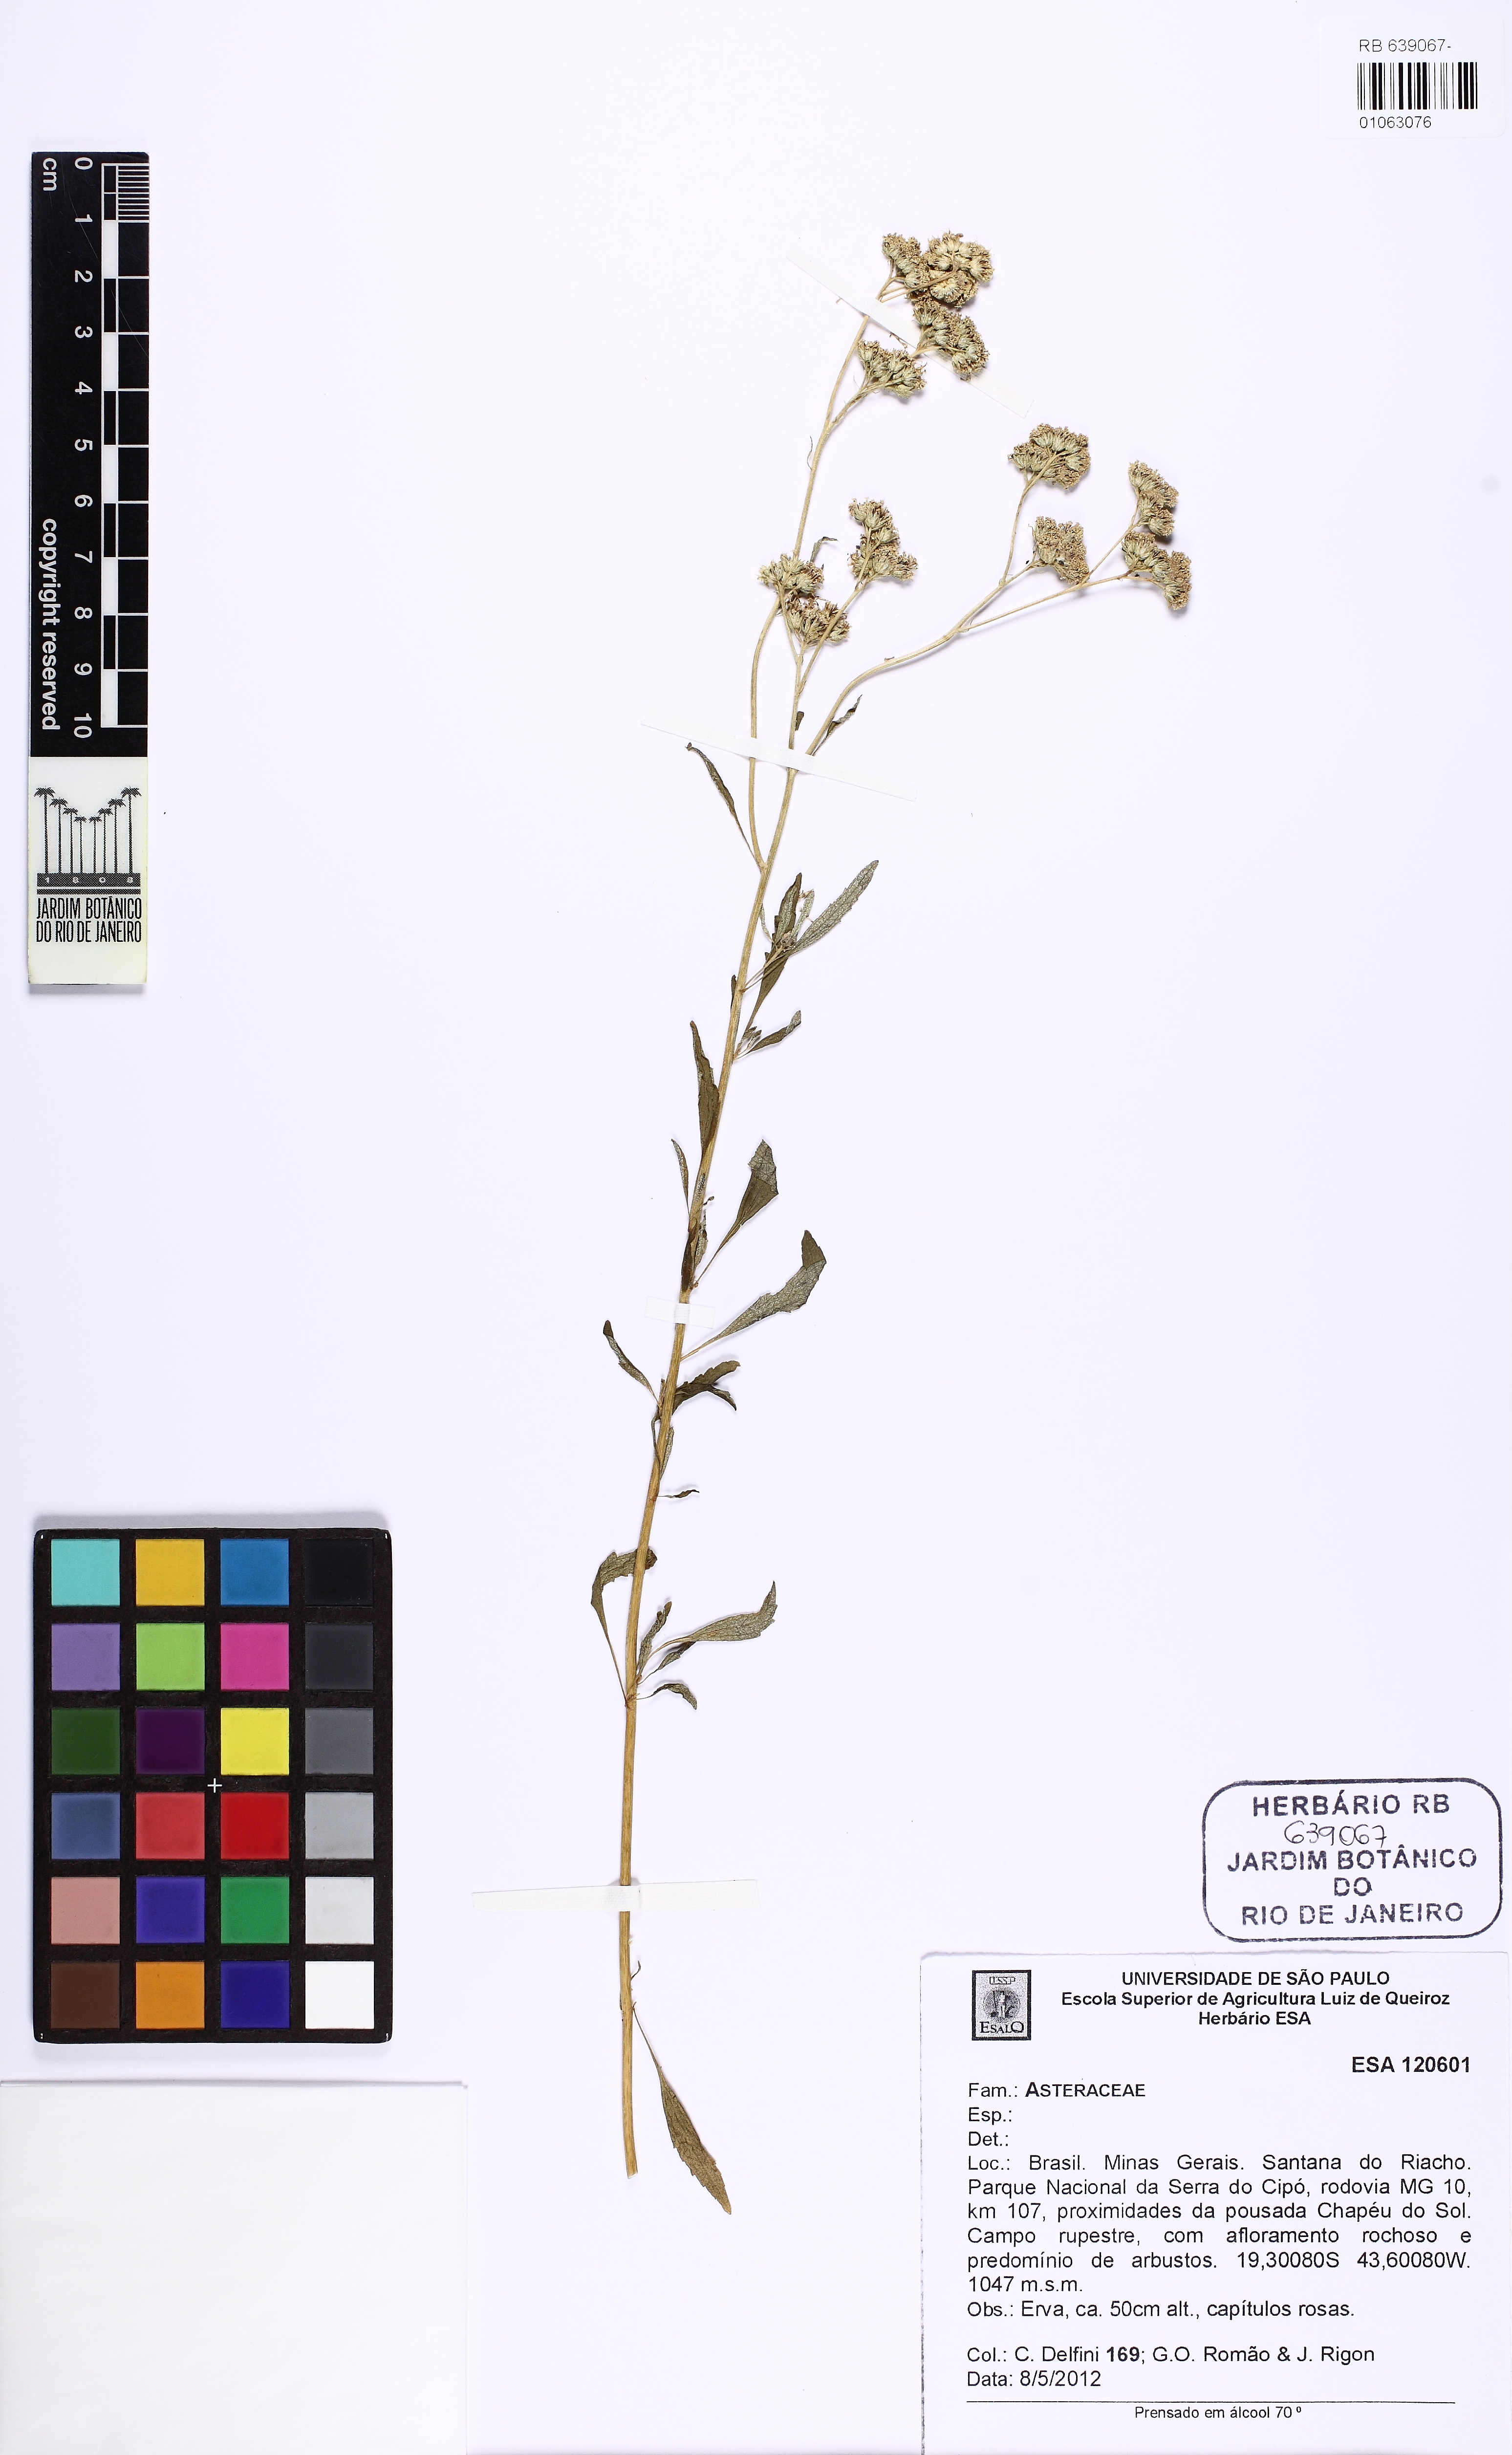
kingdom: Plantae
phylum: Tracheophyta
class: Magnoliopsida
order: Asterales
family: Asteraceae
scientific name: Asteraceae
